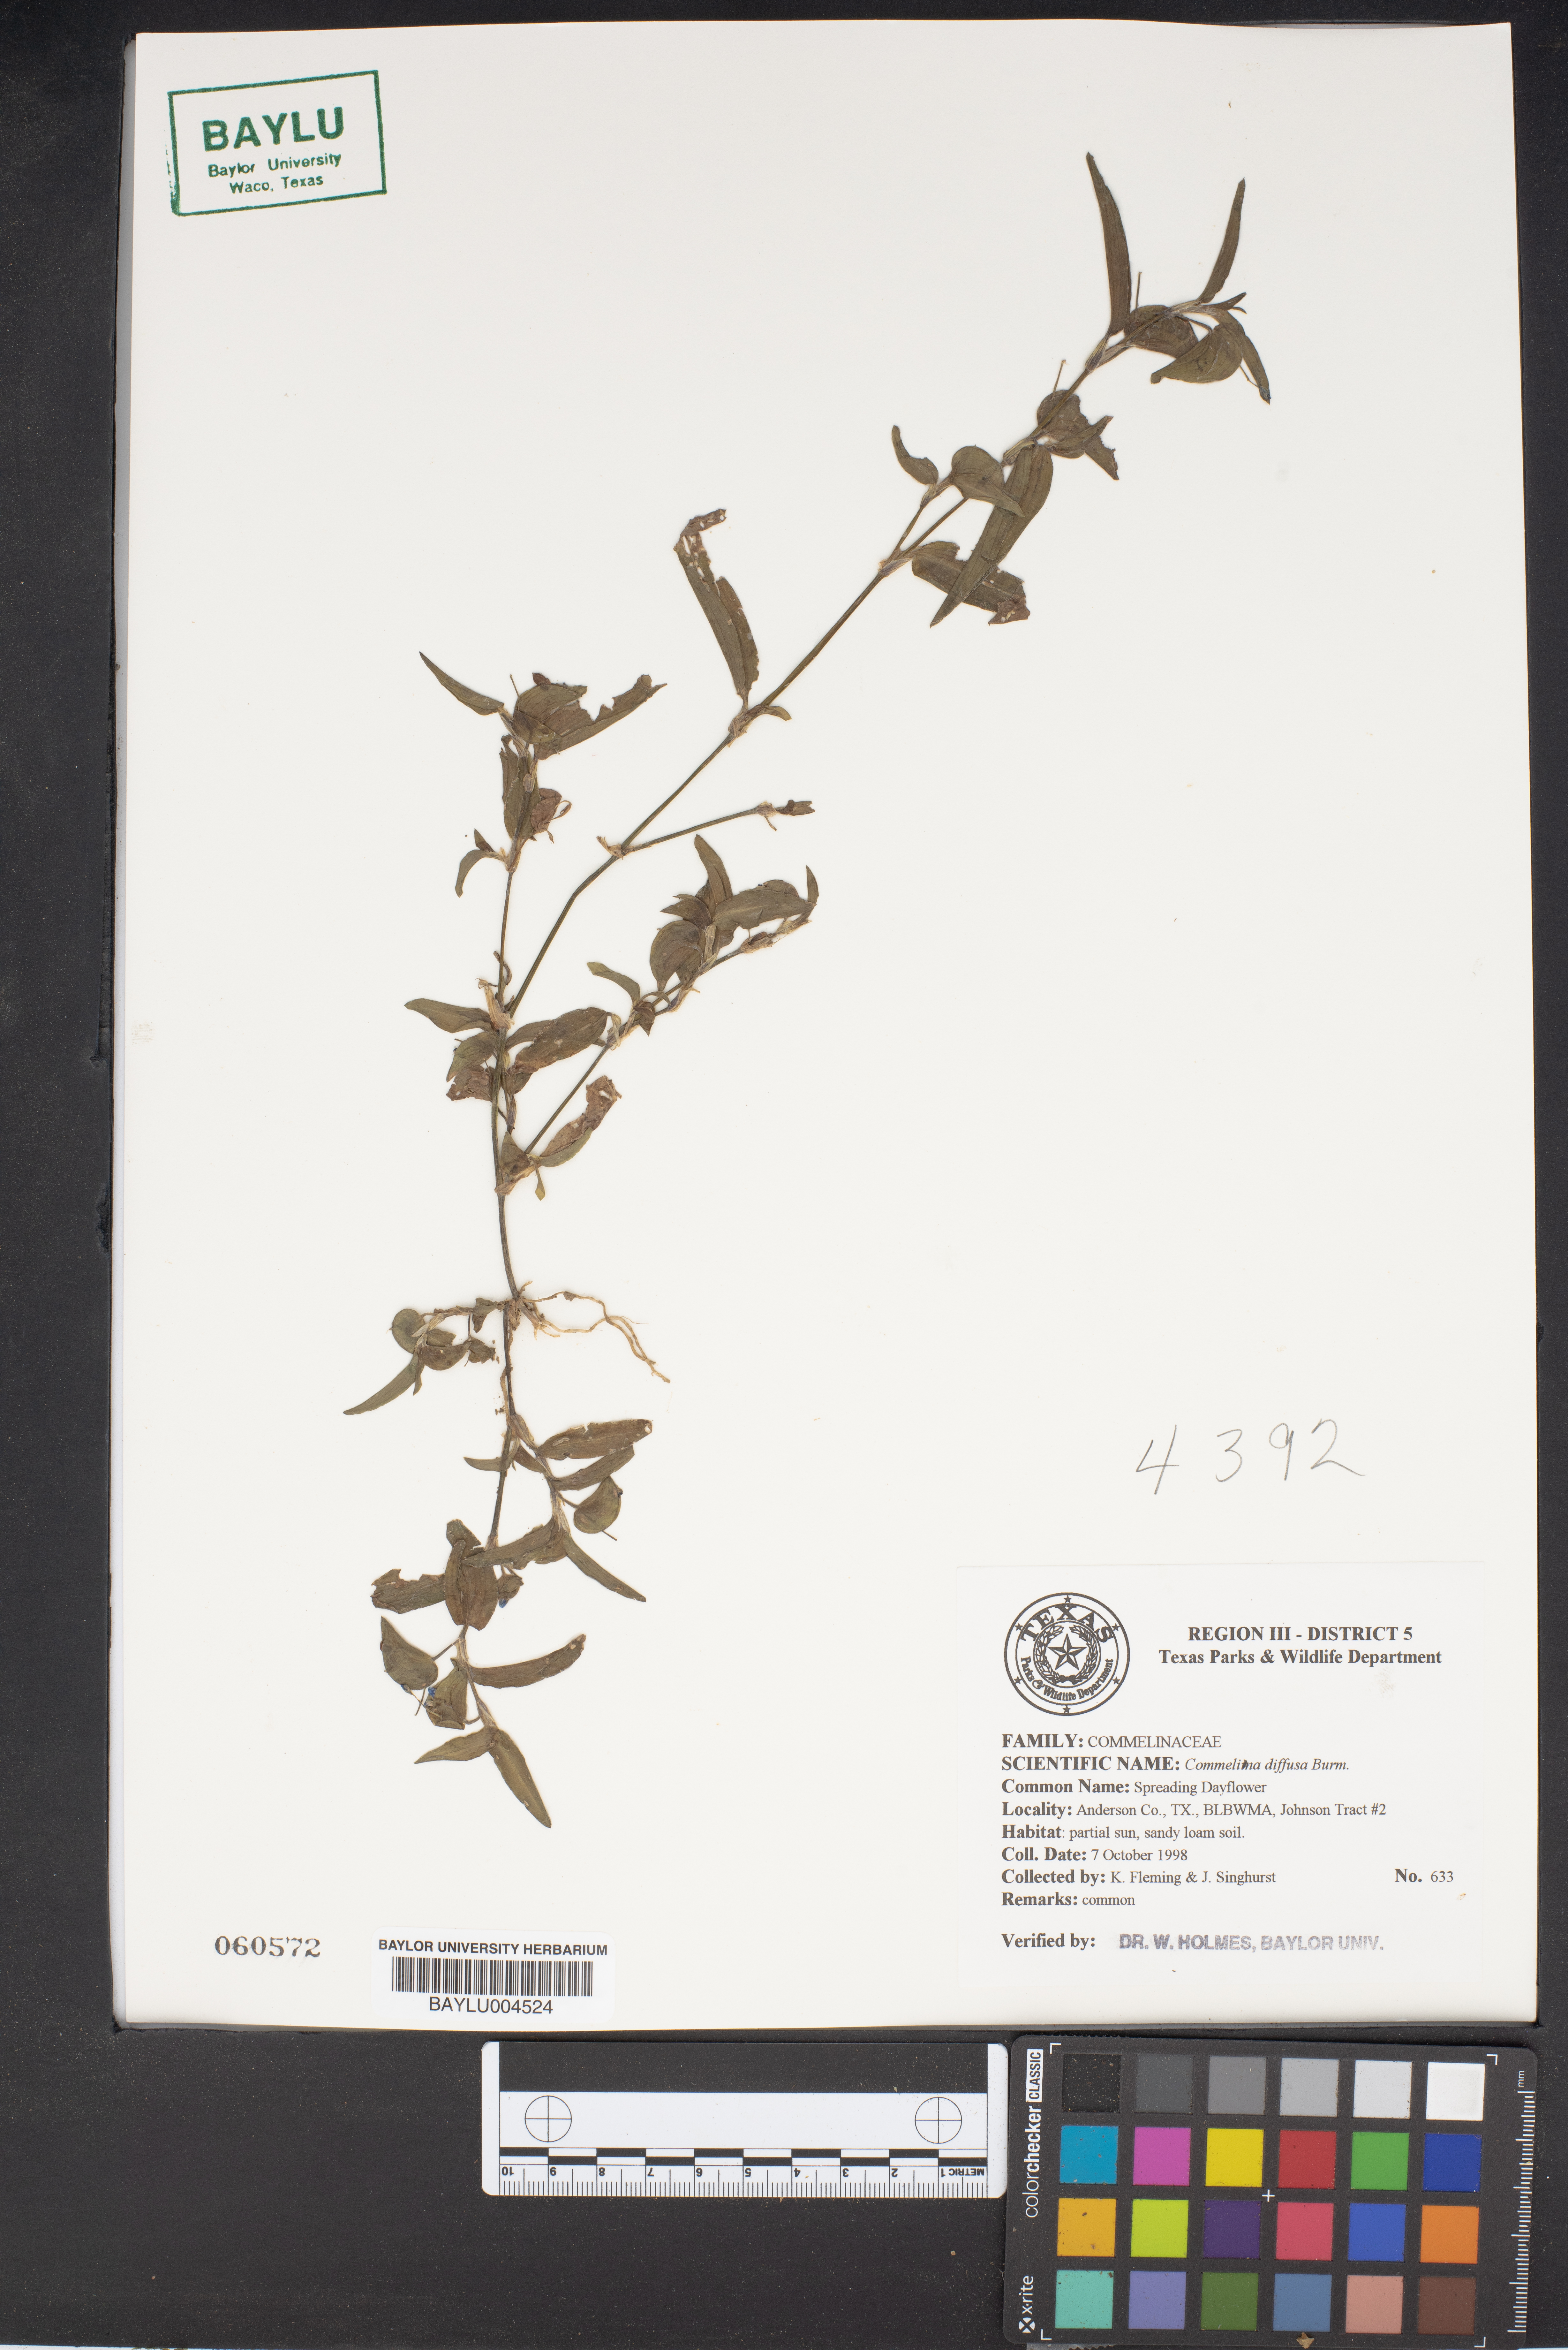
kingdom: Plantae
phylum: Tracheophyta
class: Liliopsida
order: Commelinales
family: Commelinaceae
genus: Commelina
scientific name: Commelina diffusa
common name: Climbing dayflower
